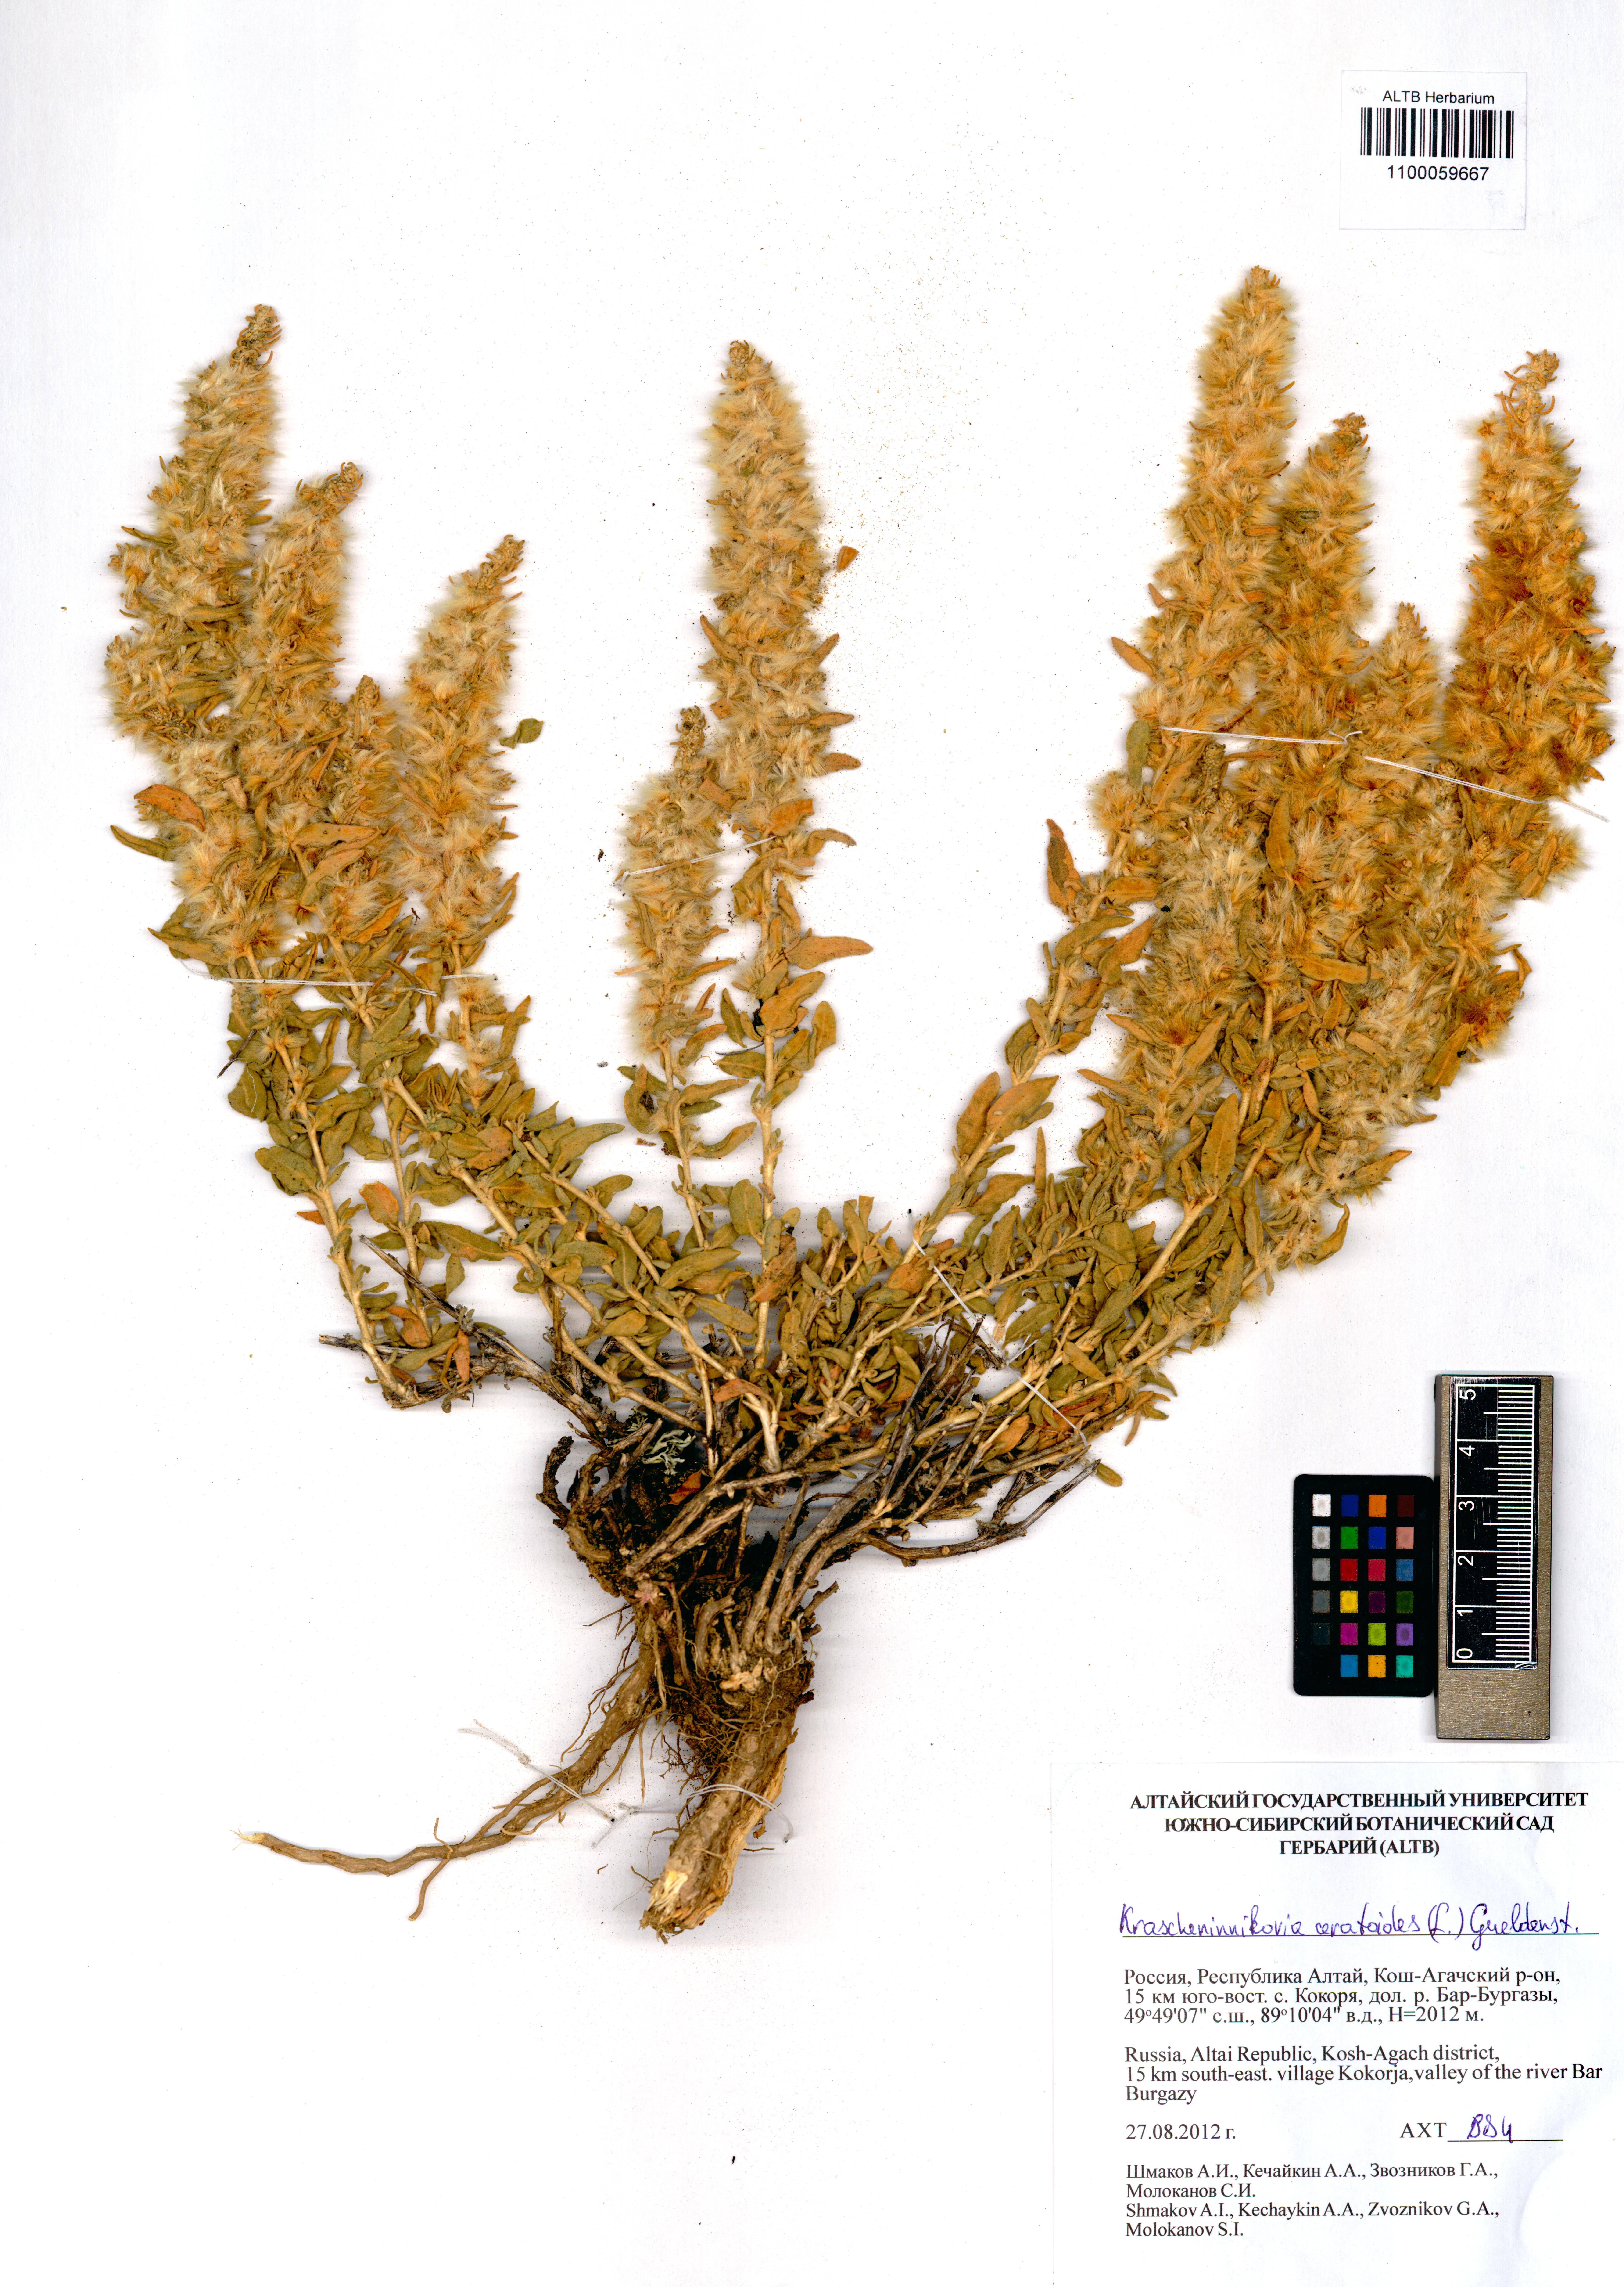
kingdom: Plantae
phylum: Tracheophyta
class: Magnoliopsida
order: Caryophyllales
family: Amaranthaceae
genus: Krascheninnikovia
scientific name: Krascheninnikovia ceratoides
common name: Pamirian winterfat
